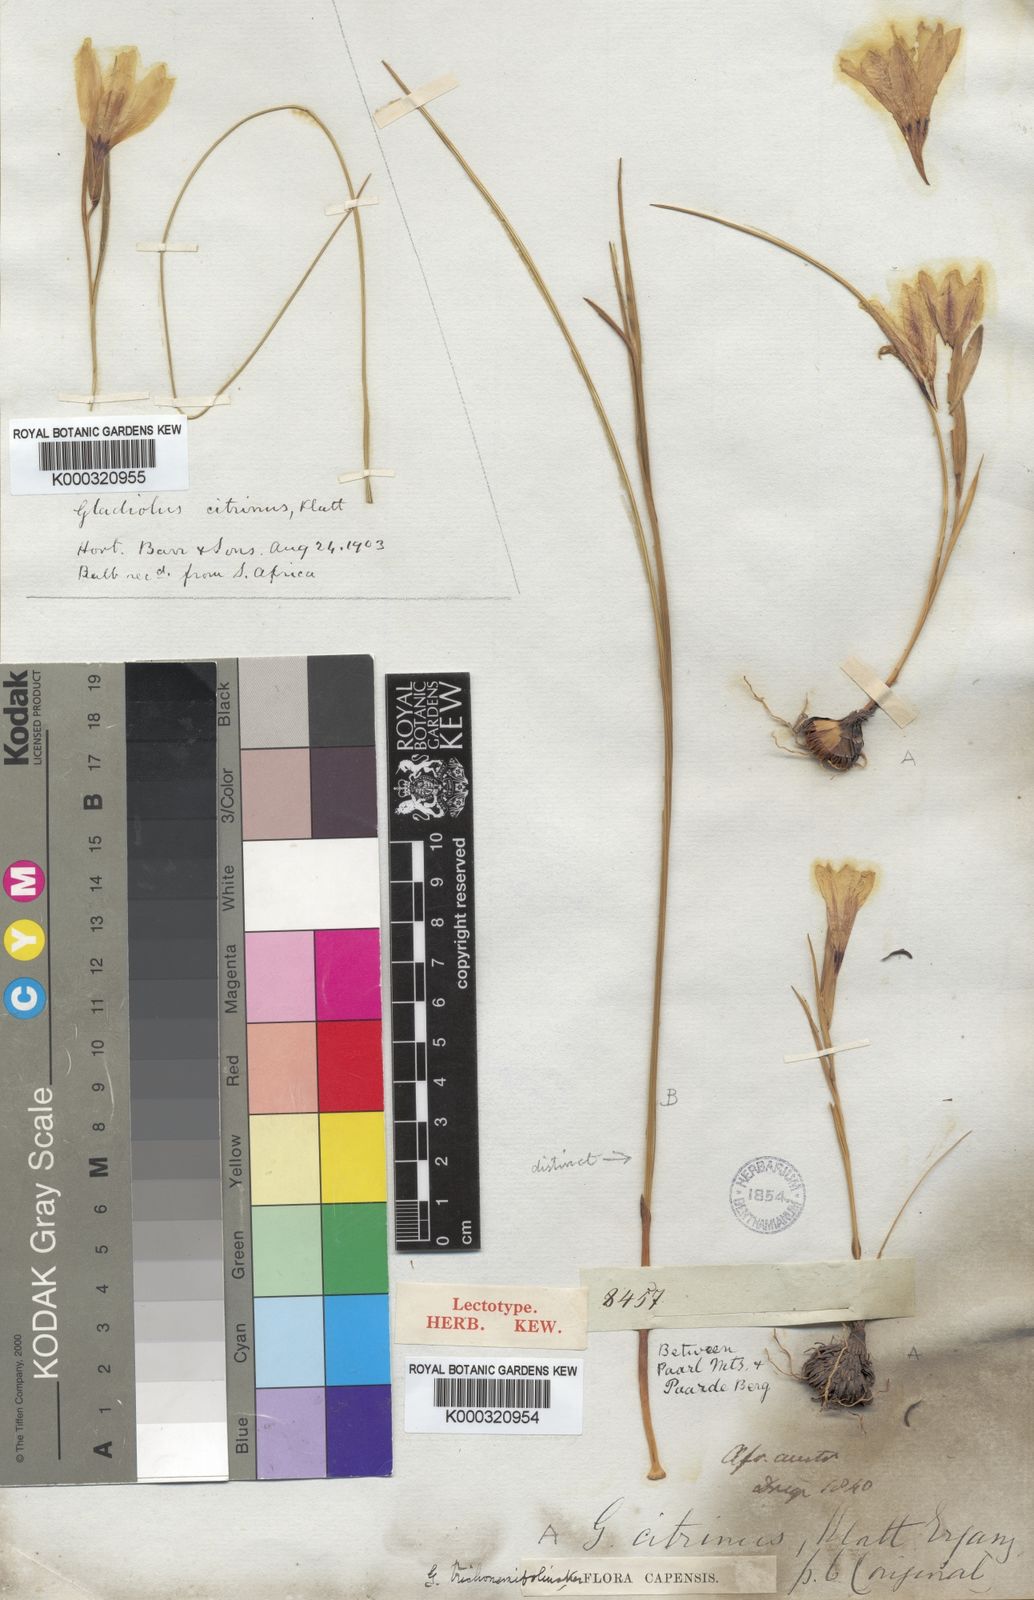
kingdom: Plantae
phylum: Tracheophyta
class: Liliopsida
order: Asparagales
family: Iridaceae
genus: Gladiolus
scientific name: Gladiolus trichonemifolius
